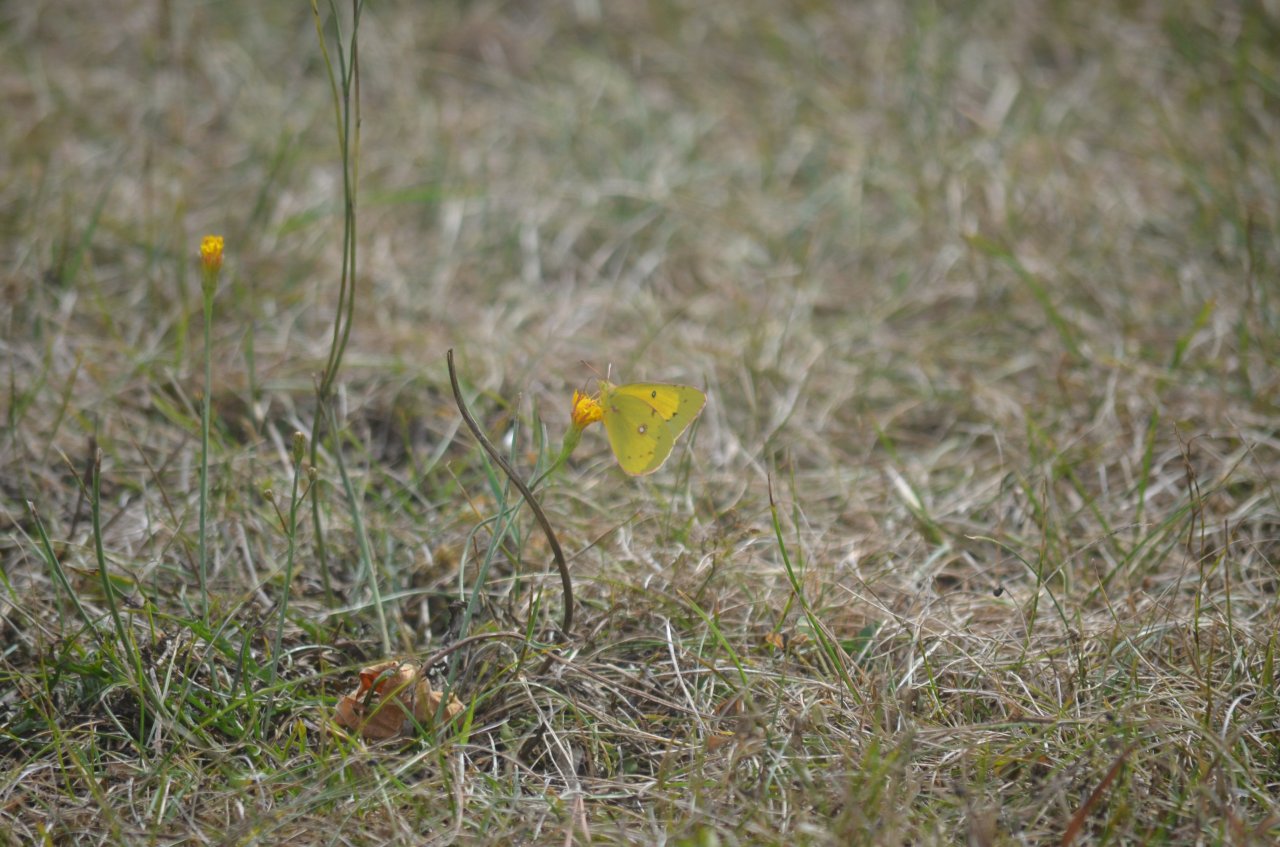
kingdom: Animalia
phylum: Arthropoda
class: Insecta
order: Lepidoptera
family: Pieridae
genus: Colias
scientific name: Colias philodice
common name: Clouded Sulphur
